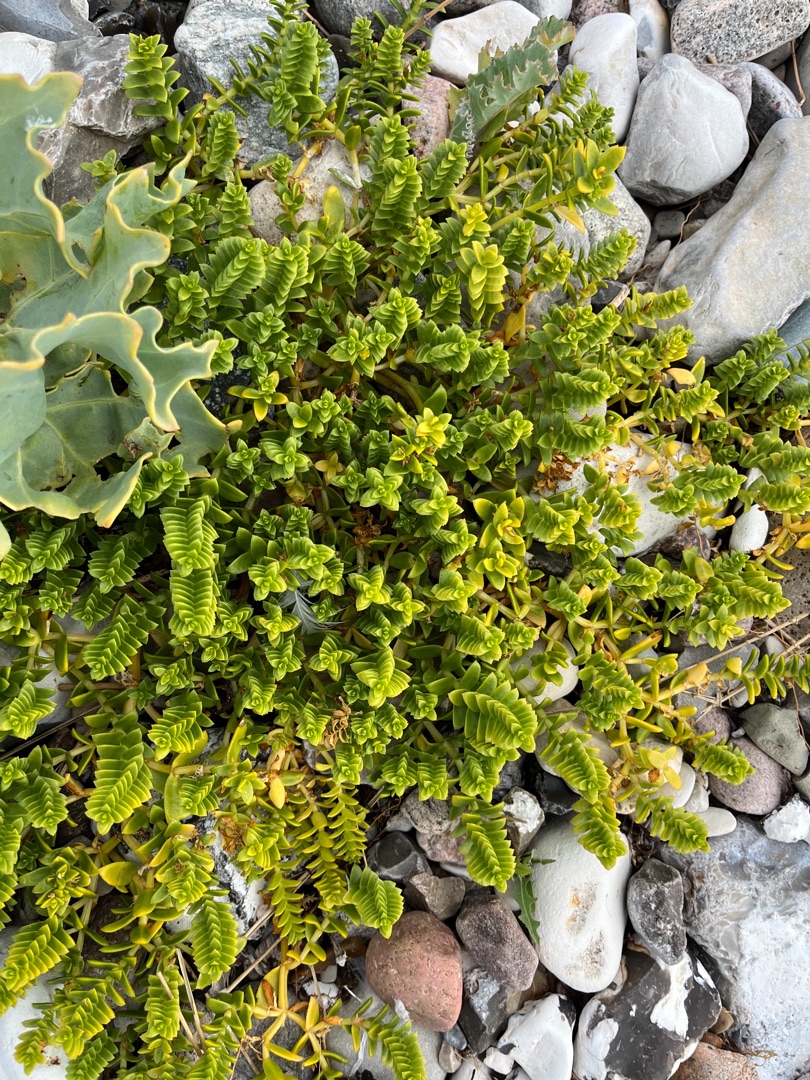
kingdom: Plantae
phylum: Tracheophyta
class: Magnoliopsida
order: Caryophyllales
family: Caryophyllaceae
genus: Honckenya
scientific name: Honckenya peploides
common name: Strandarve
